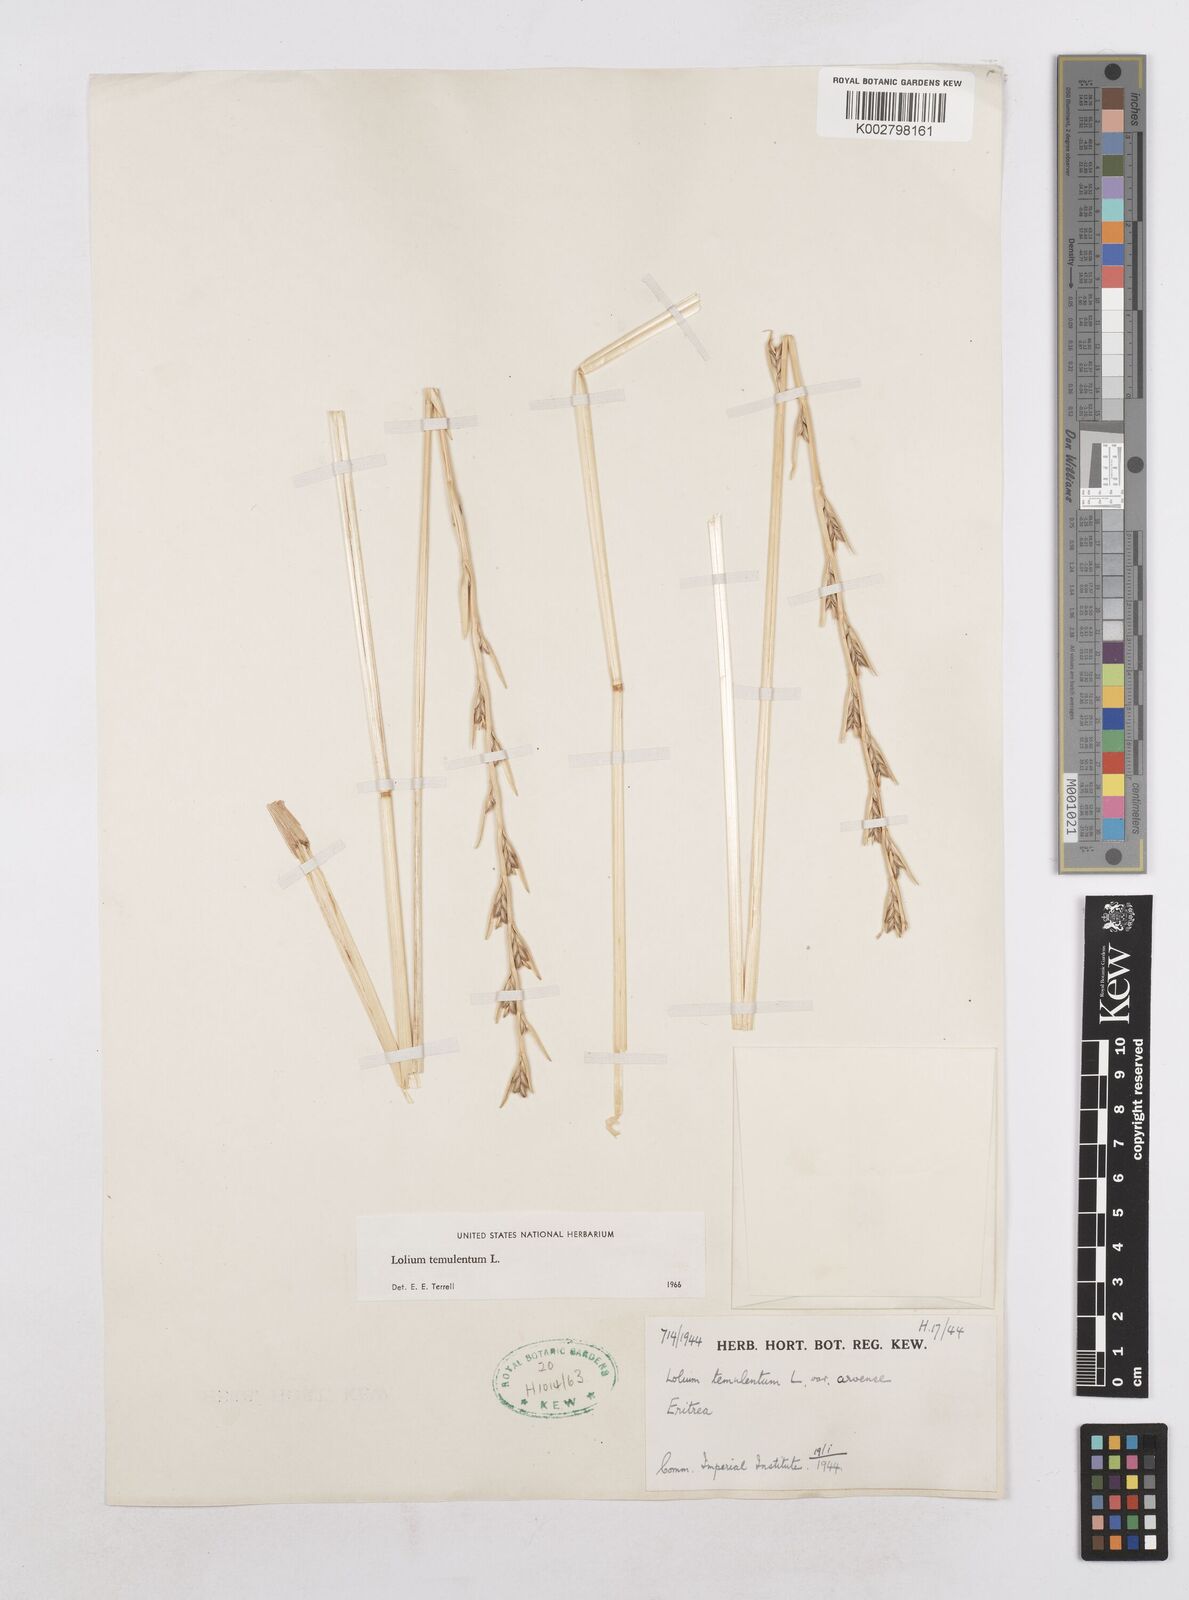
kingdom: Plantae
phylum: Tracheophyta
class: Liliopsida
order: Poales
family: Poaceae
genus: Lolium
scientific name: Lolium temulentum
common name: Darnel
